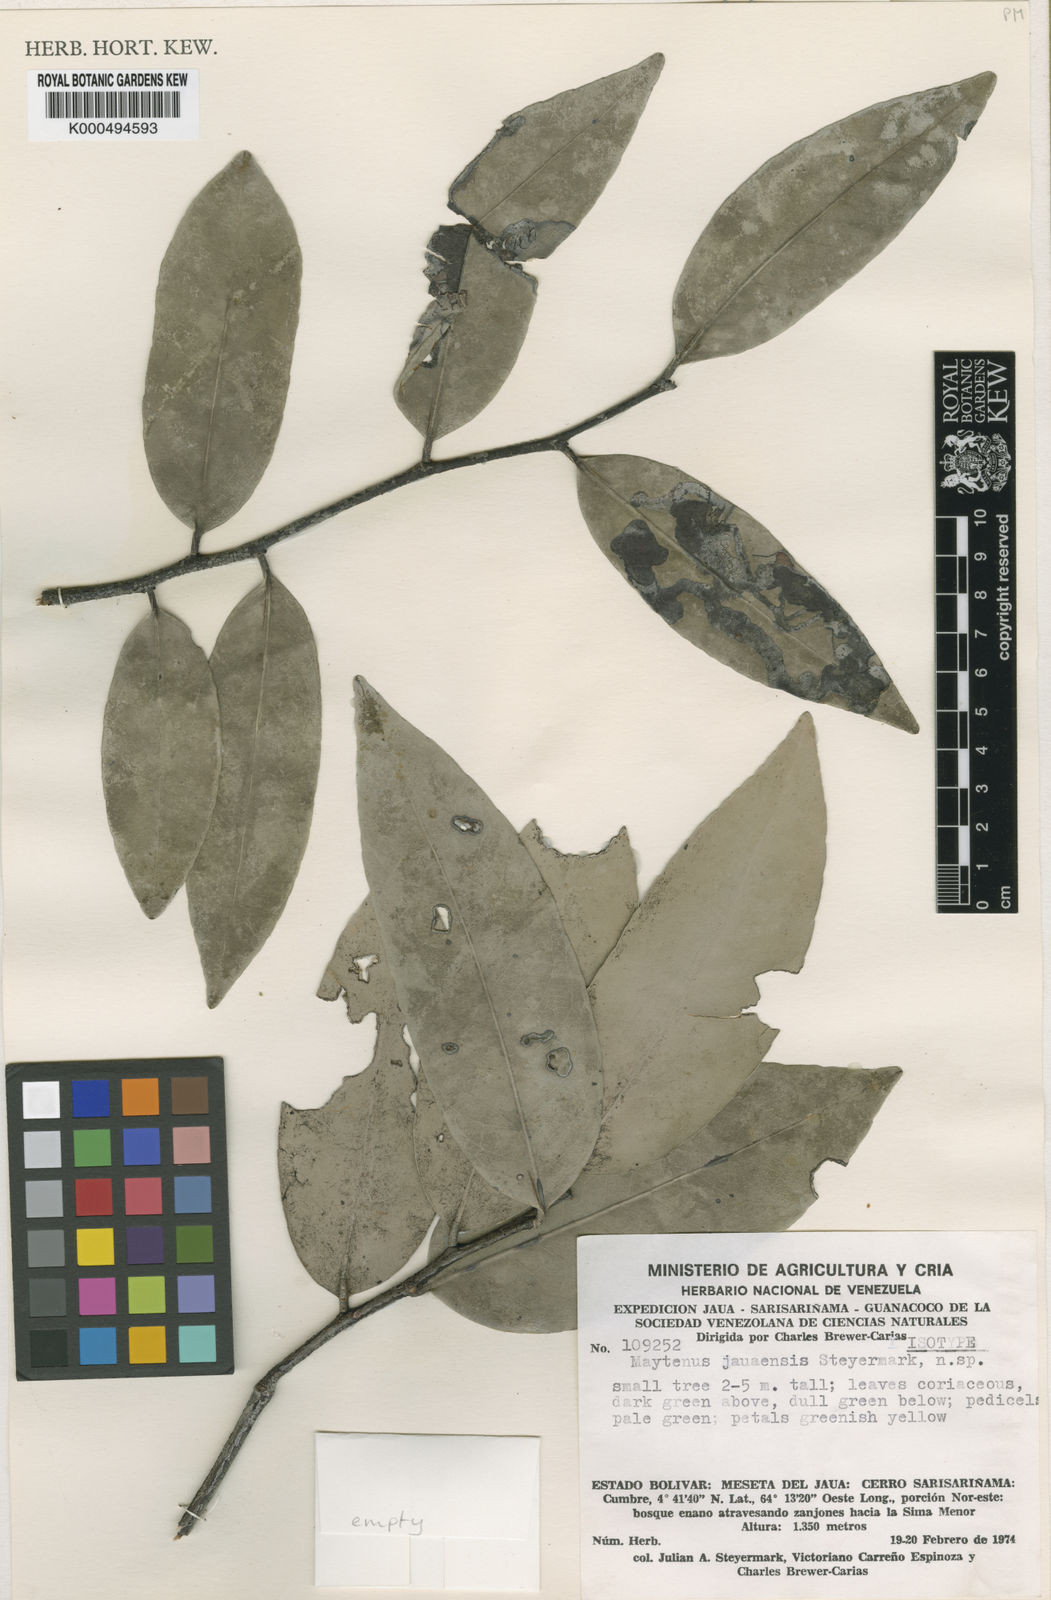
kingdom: Plantae
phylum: Tracheophyta
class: Magnoliopsida
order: Celastrales
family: Celastraceae
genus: Monteverdia
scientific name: Monteverdia laevis
